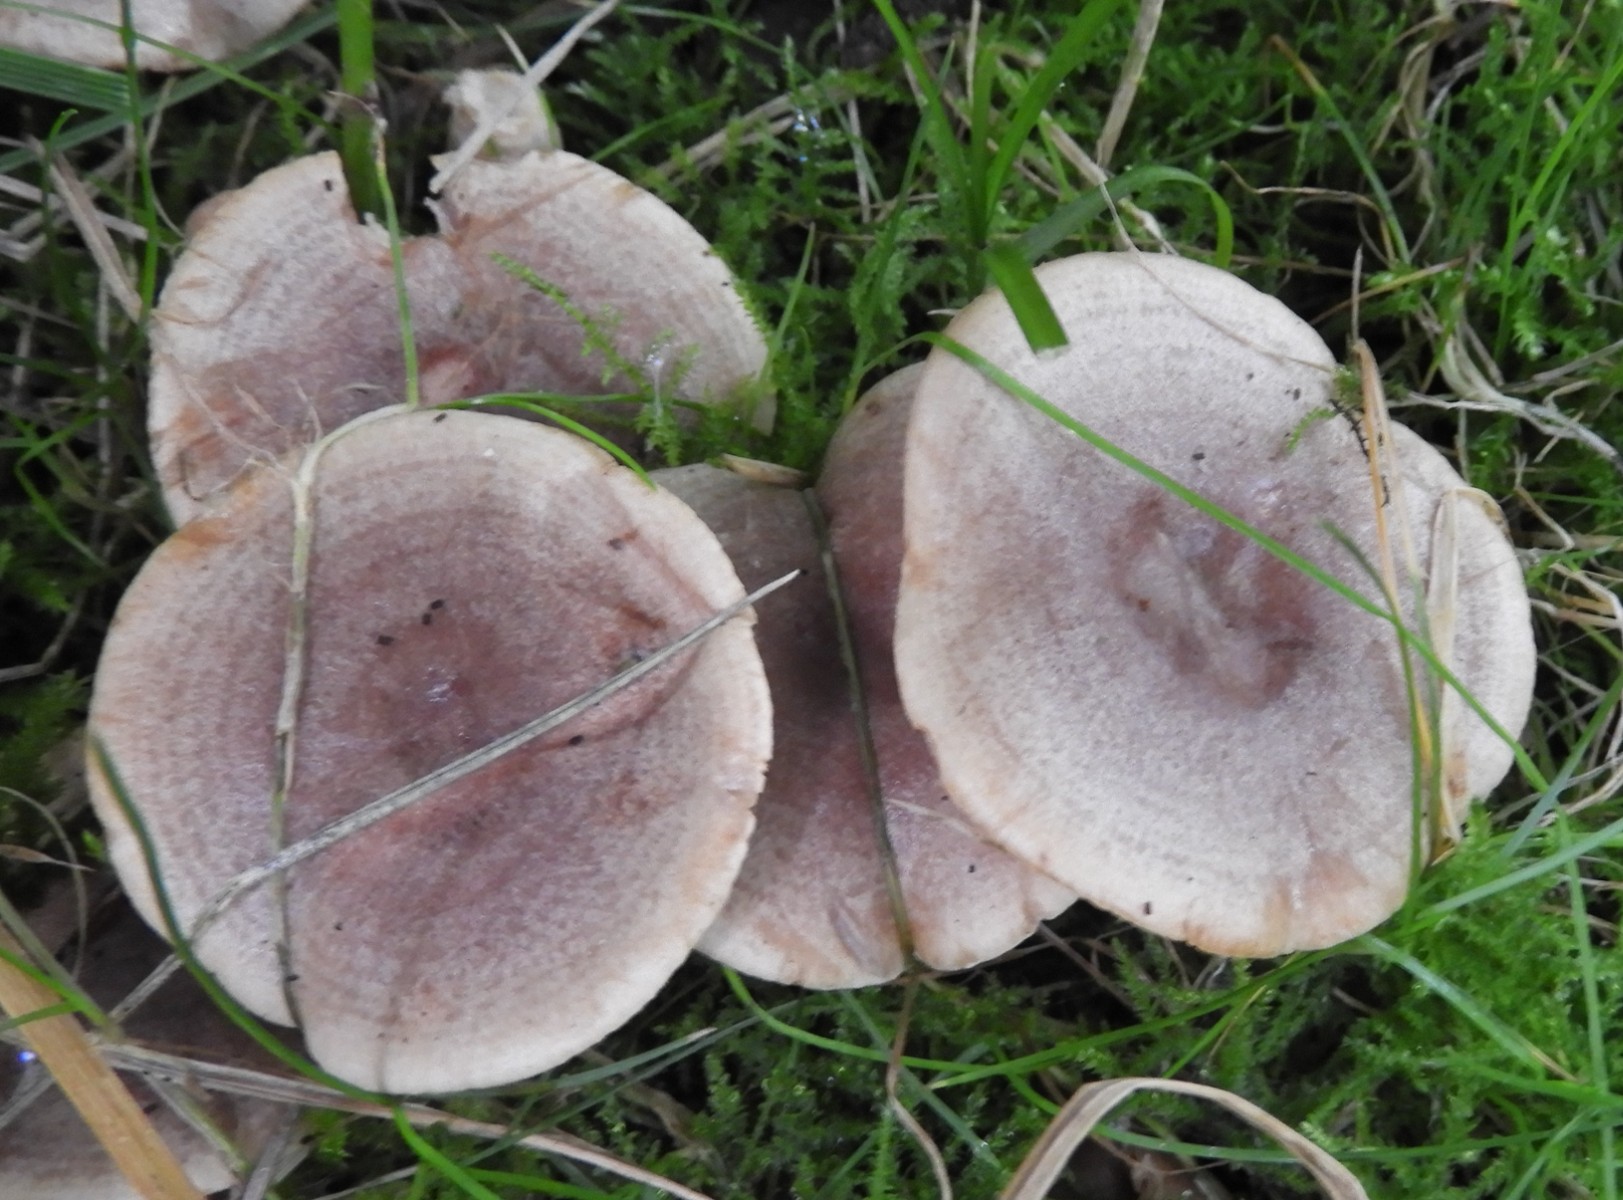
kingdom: Fungi
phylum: Basidiomycota
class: Agaricomycetes
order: Russulales
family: Russulaceae
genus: Lactarius
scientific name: Lactarius pyrogalus
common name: hassel-mælkehat
